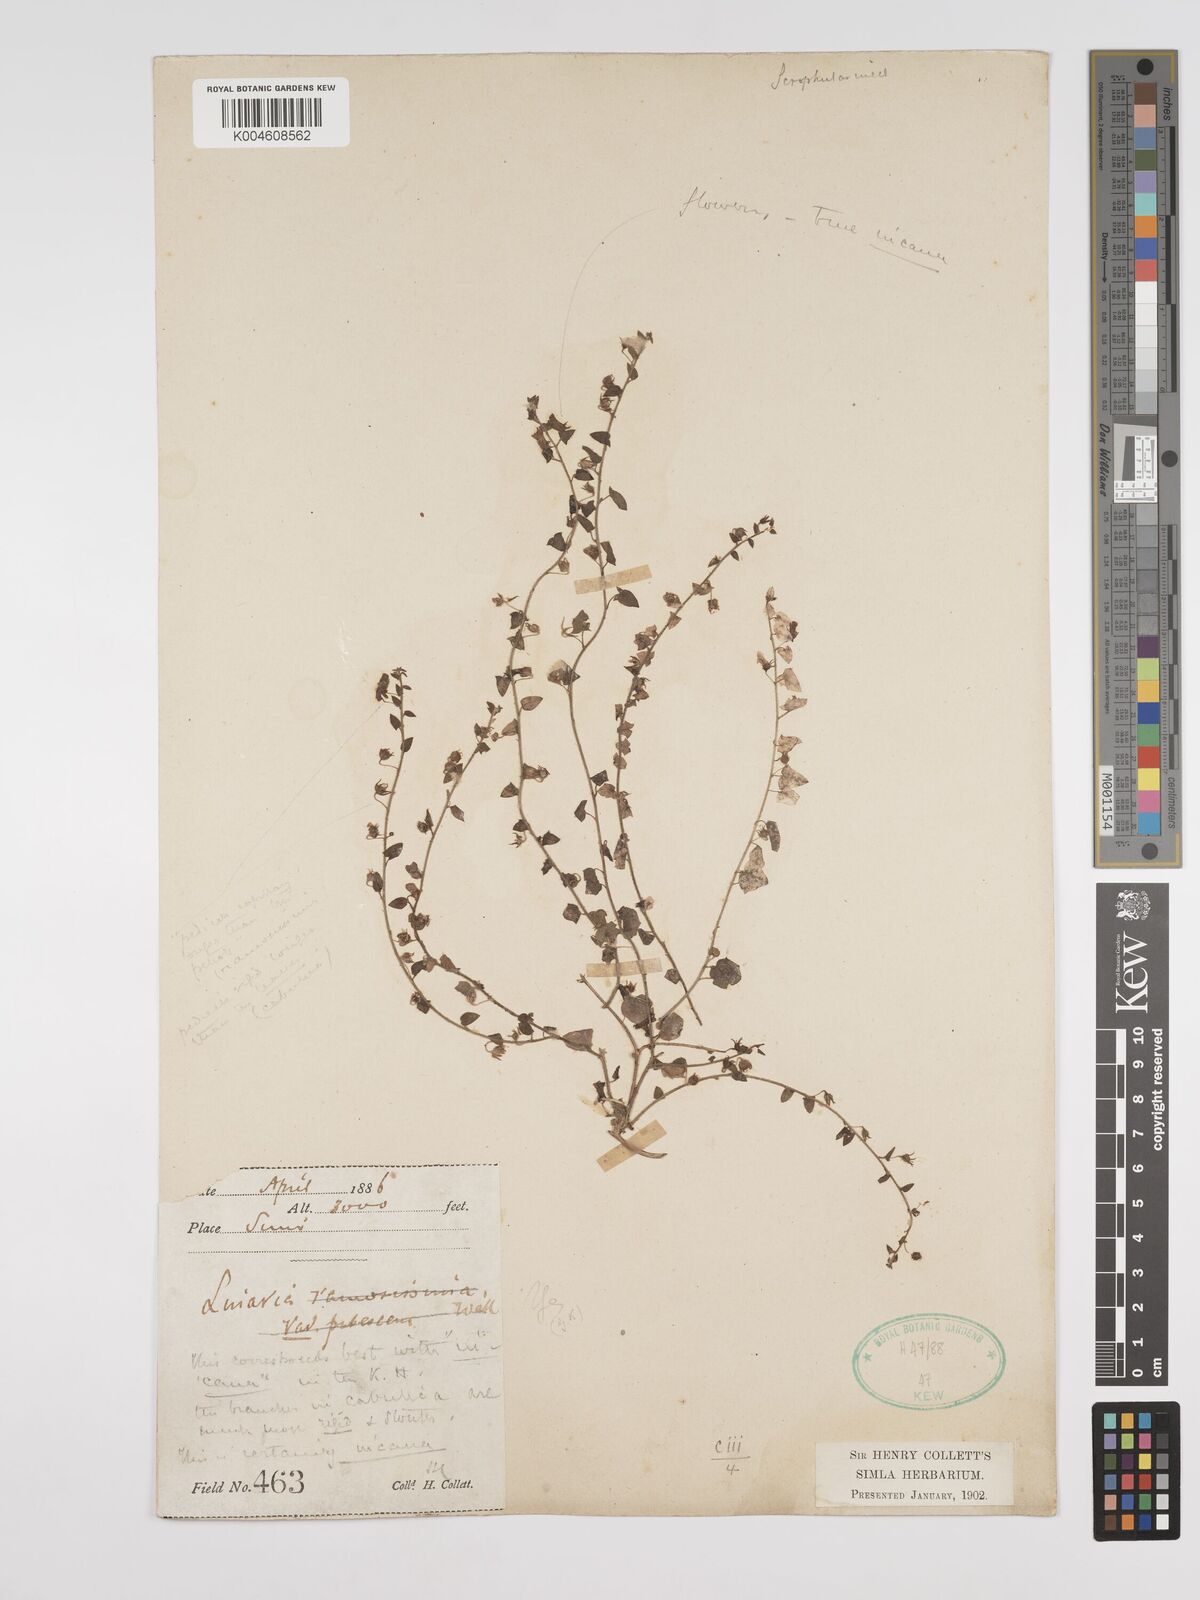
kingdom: Plantae
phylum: Tracheophyta
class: Magnoliopsida
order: Lamiales
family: Plantaginaceae
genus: Nanorrhinum
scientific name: Nanorrhinum ramosissimum
